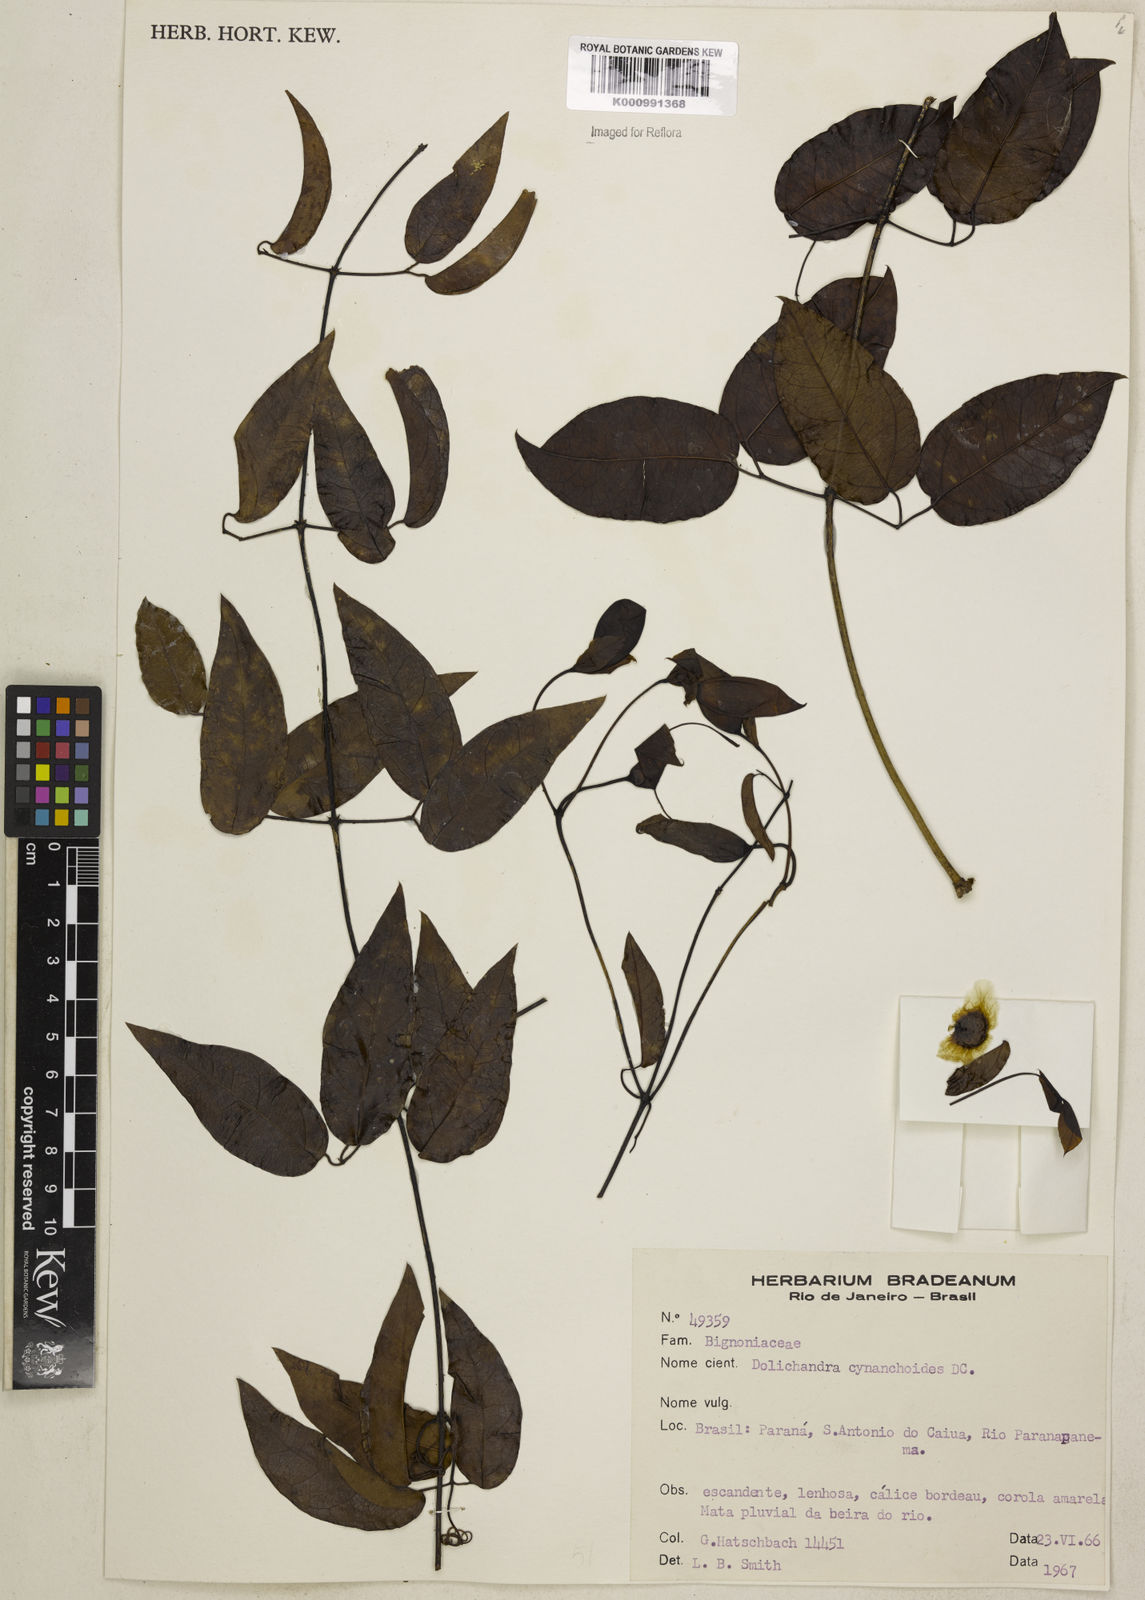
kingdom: Plantae
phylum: Tracheophyta
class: Magnoliopsida
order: Lamiales
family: Bignoniaceae
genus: Dolichandra
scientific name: Dolichandra cynanchoides
